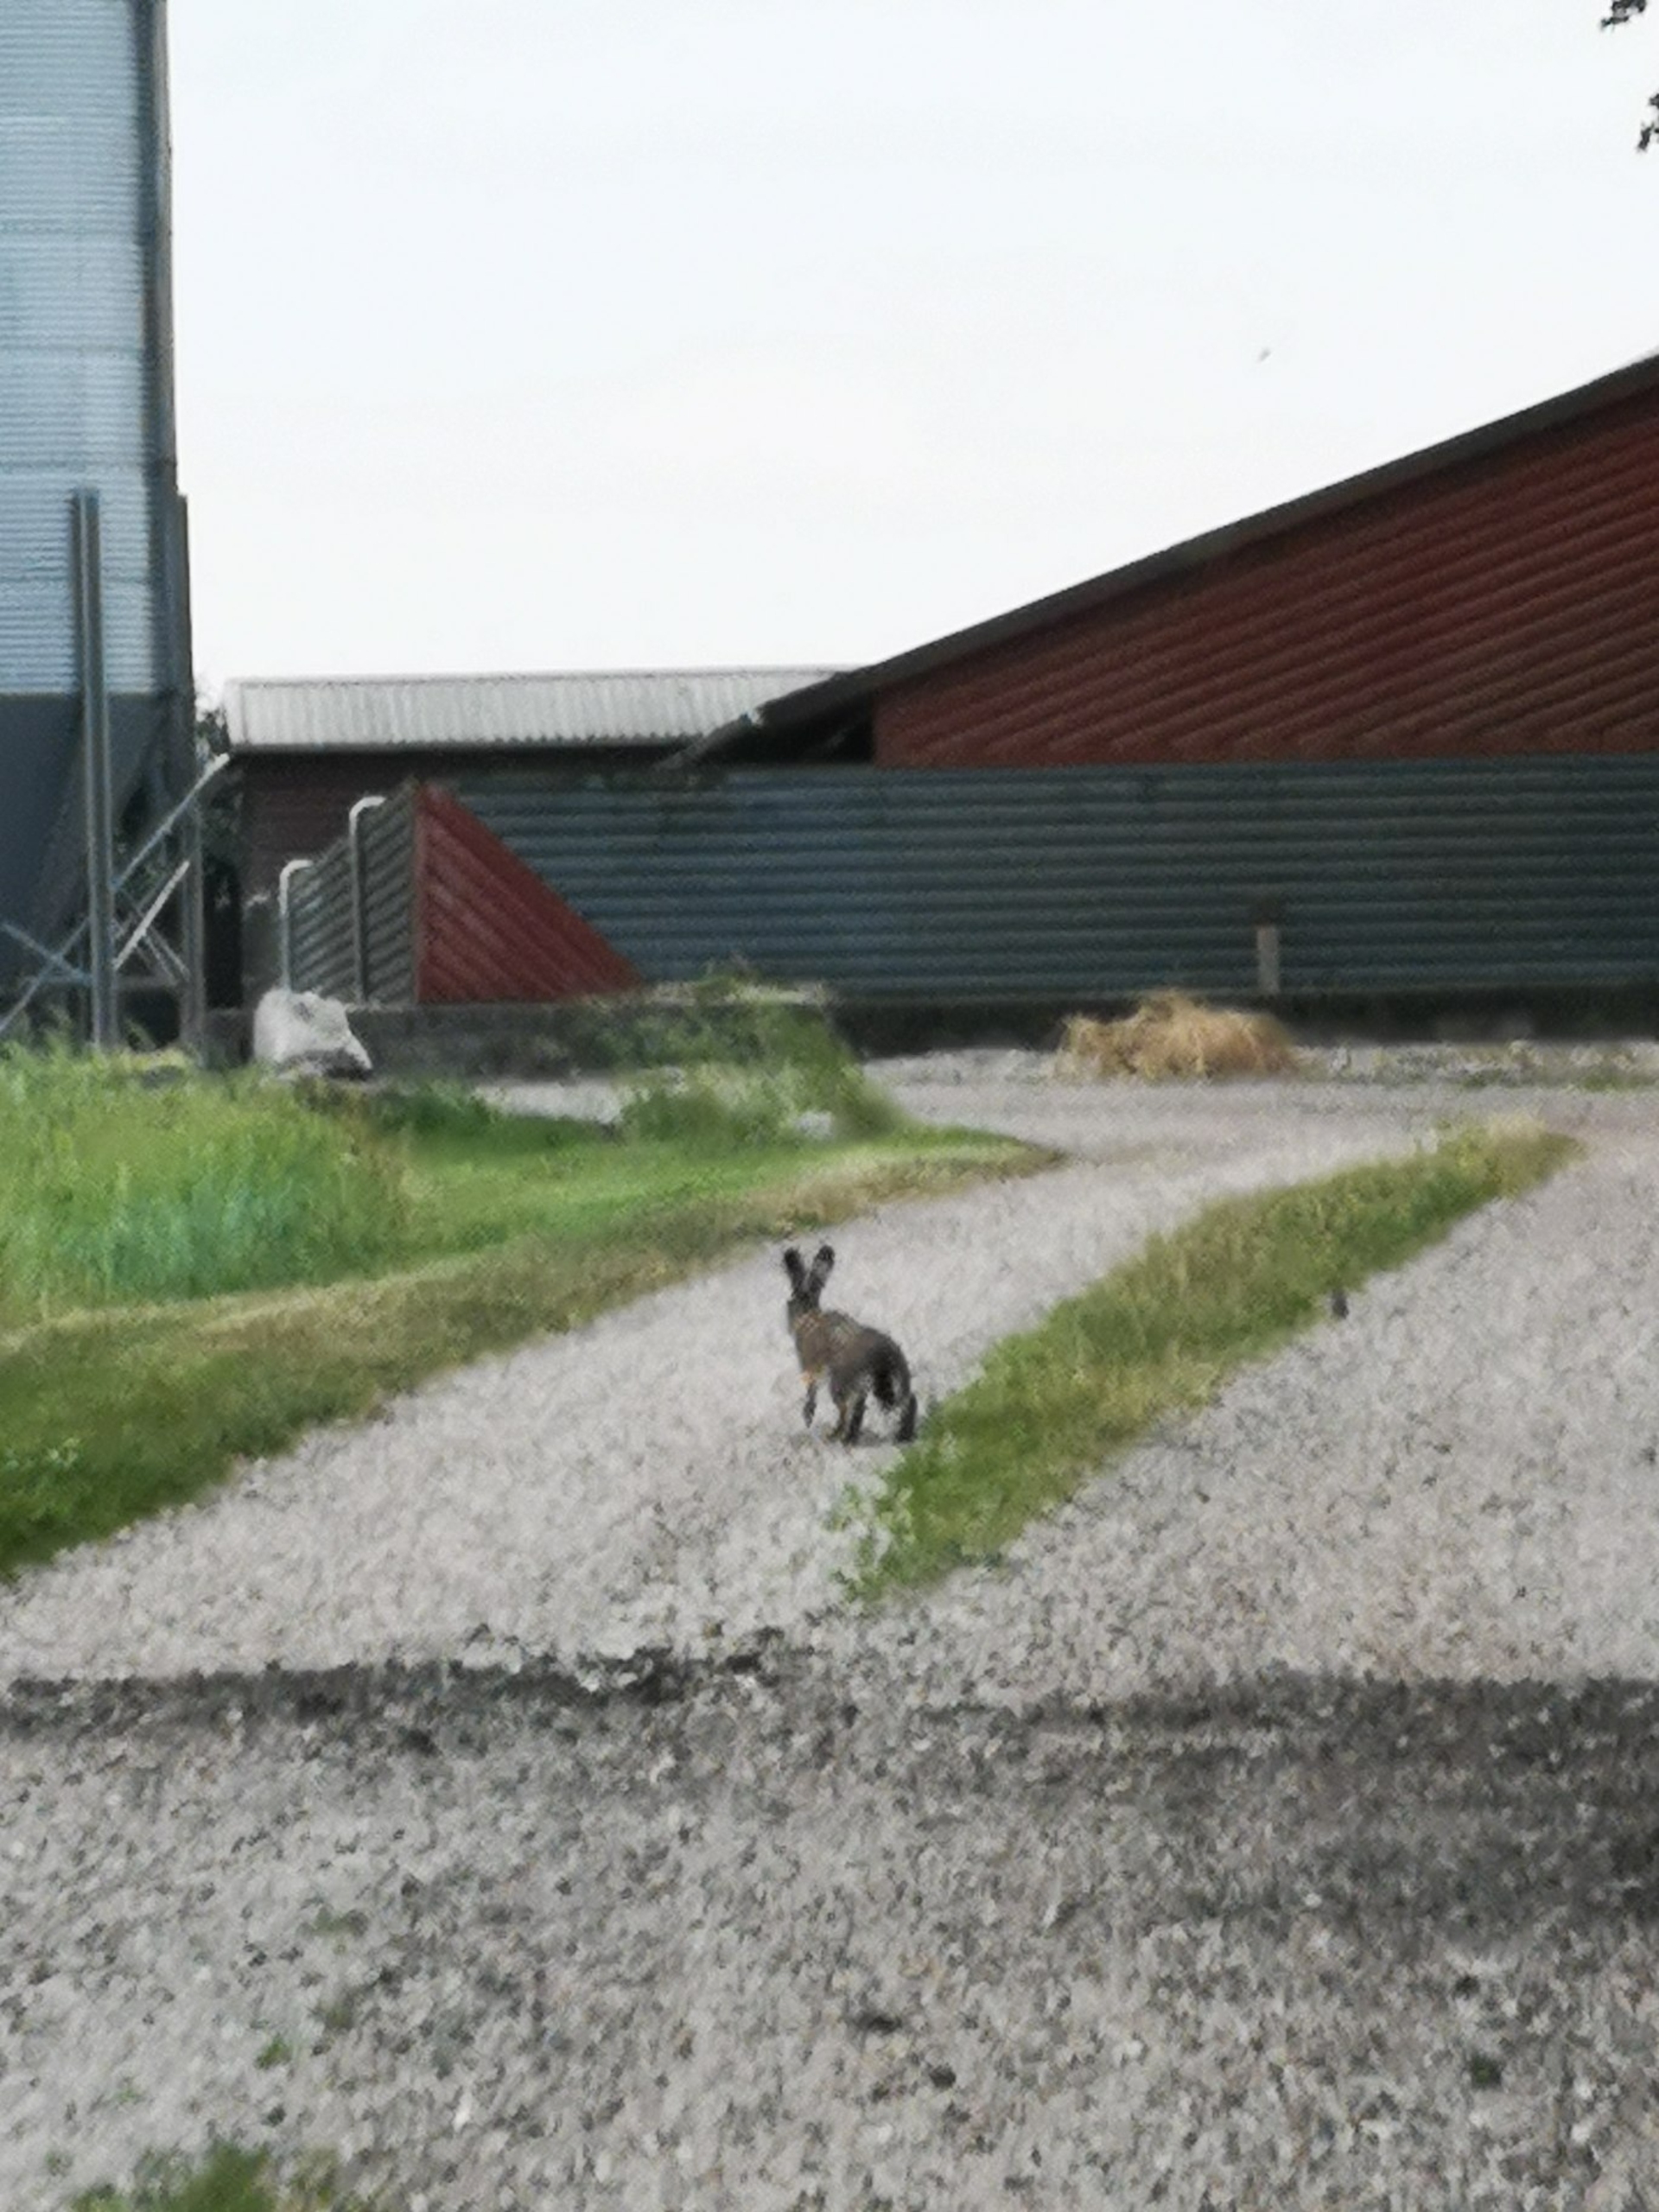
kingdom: Animalia
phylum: Chordata
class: Mammalia
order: Lagomorpha
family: Leporidae
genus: Lepus
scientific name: Lepus europaeus
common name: Hare
